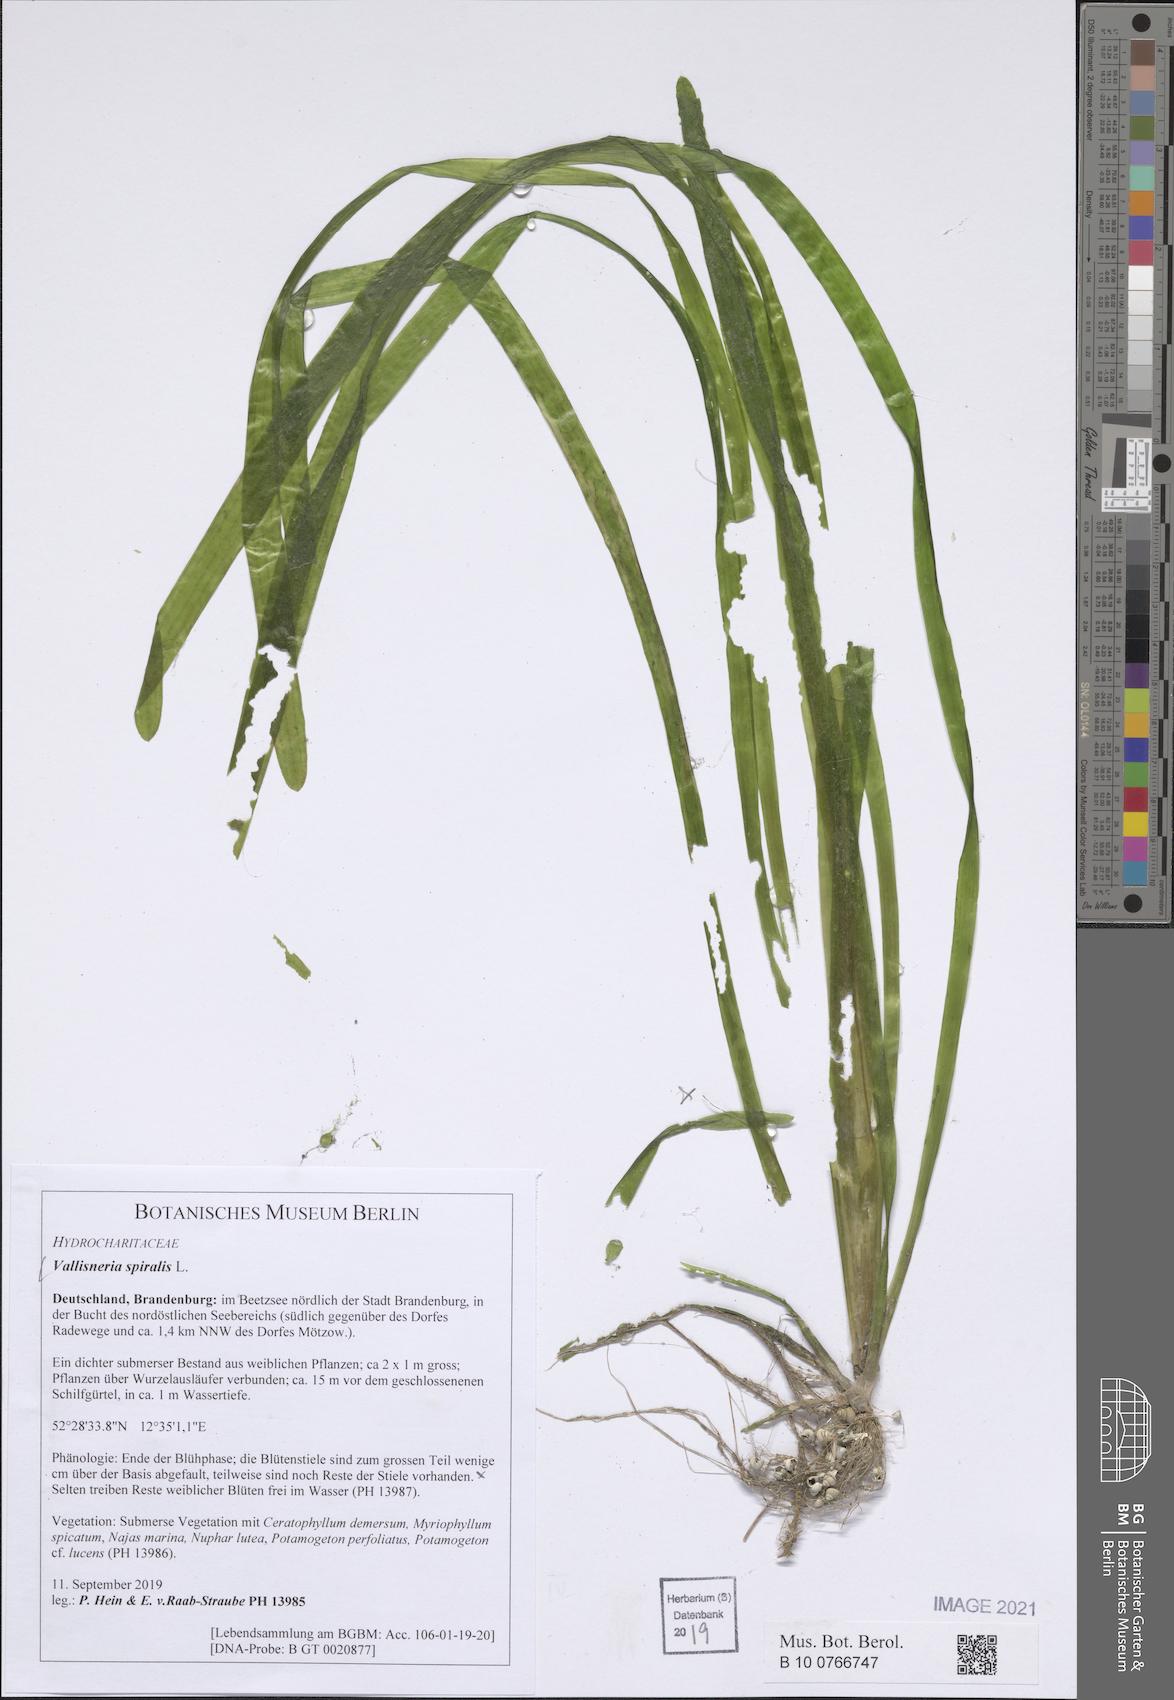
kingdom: Plantae
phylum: Tracheophyta
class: Liliopsida
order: Alismatales
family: Hydrocharitaceae
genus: Vallisneria
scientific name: Vallisneria spiralis
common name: Tapegrass
